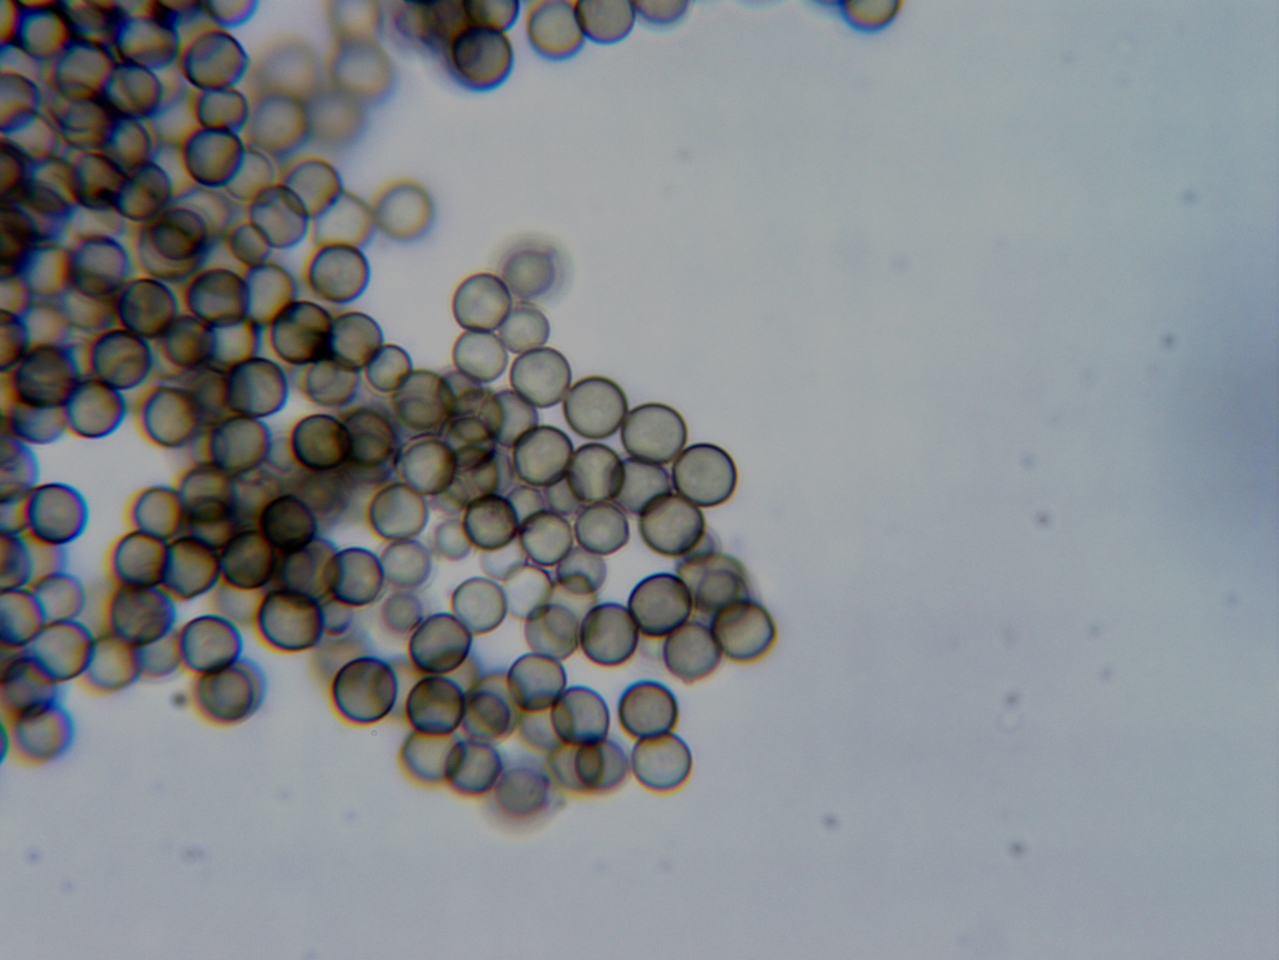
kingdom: Fungi
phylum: Ascomycota
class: Leotiomycetes
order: Helotiales
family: Hyaloscyphaceae
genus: Pseudaegerita
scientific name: Pseudaegerita viridis
